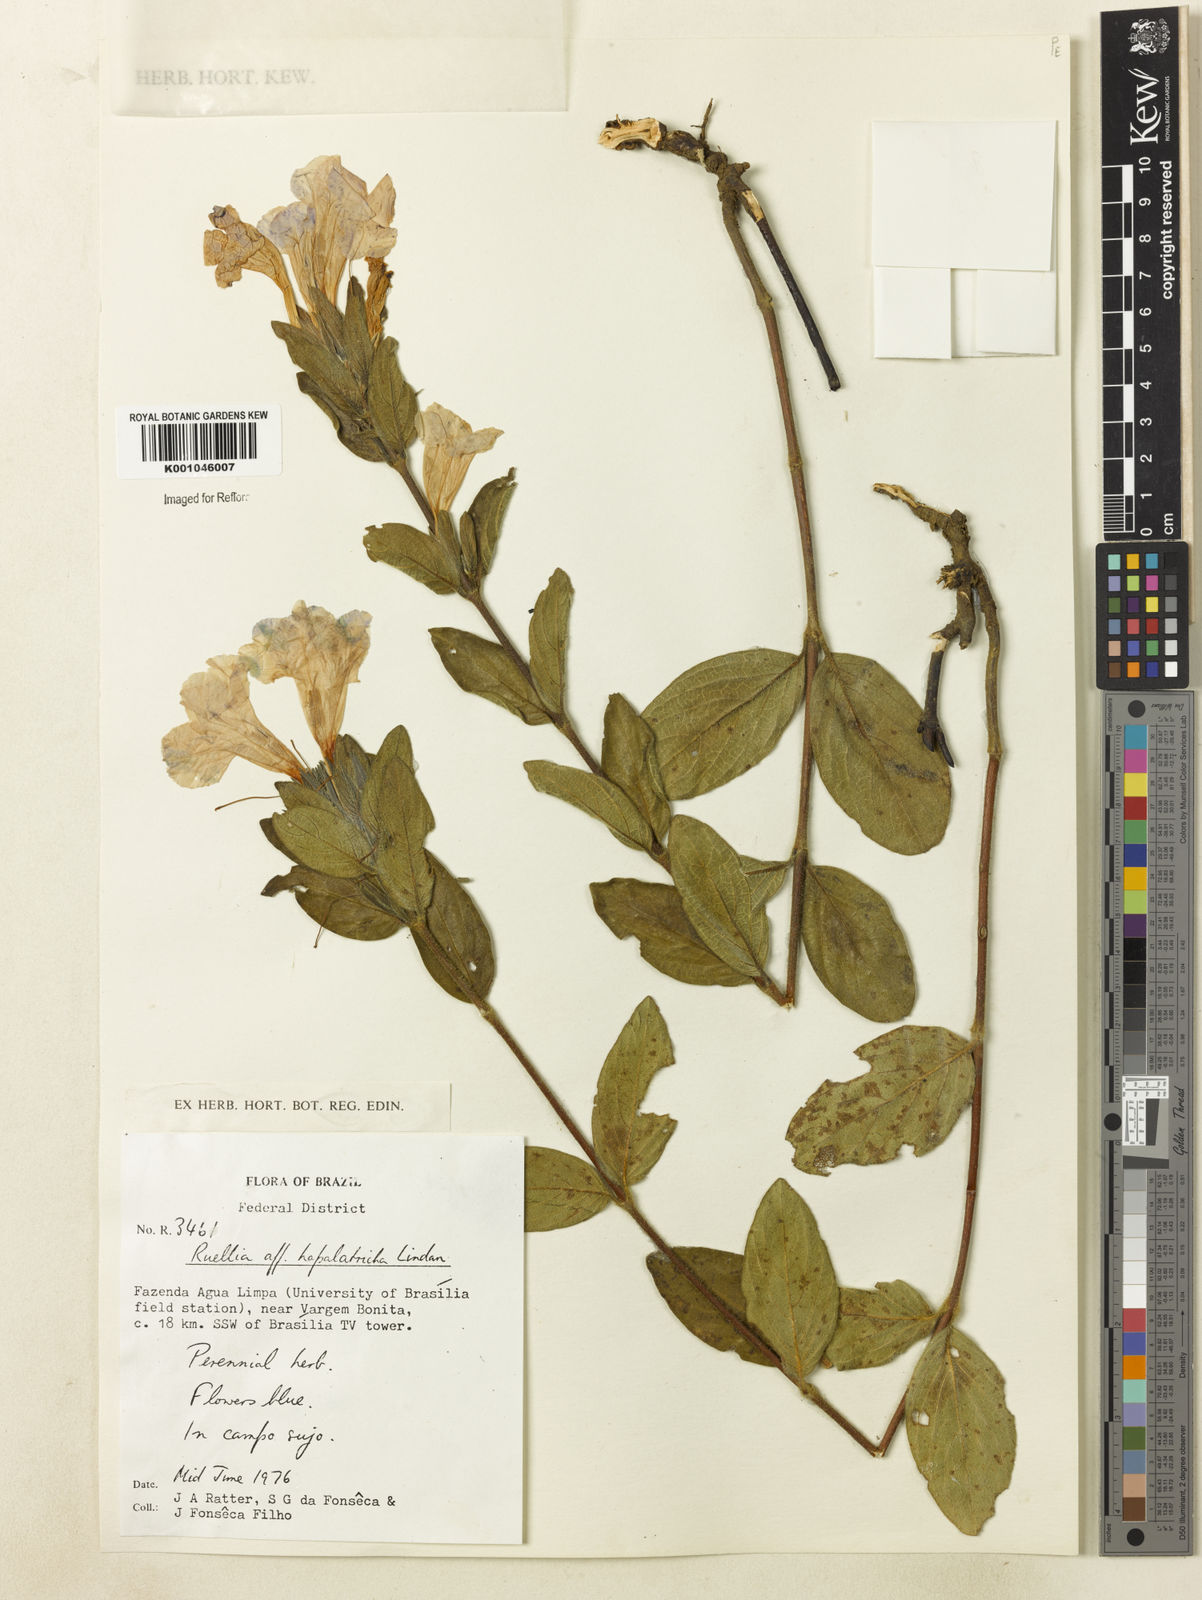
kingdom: Plantae
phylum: Tracheophyta
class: Magnoliopsida
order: Lamiales
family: Acanthaceae
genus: Ruellia
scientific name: Ruellia hapalotricha
